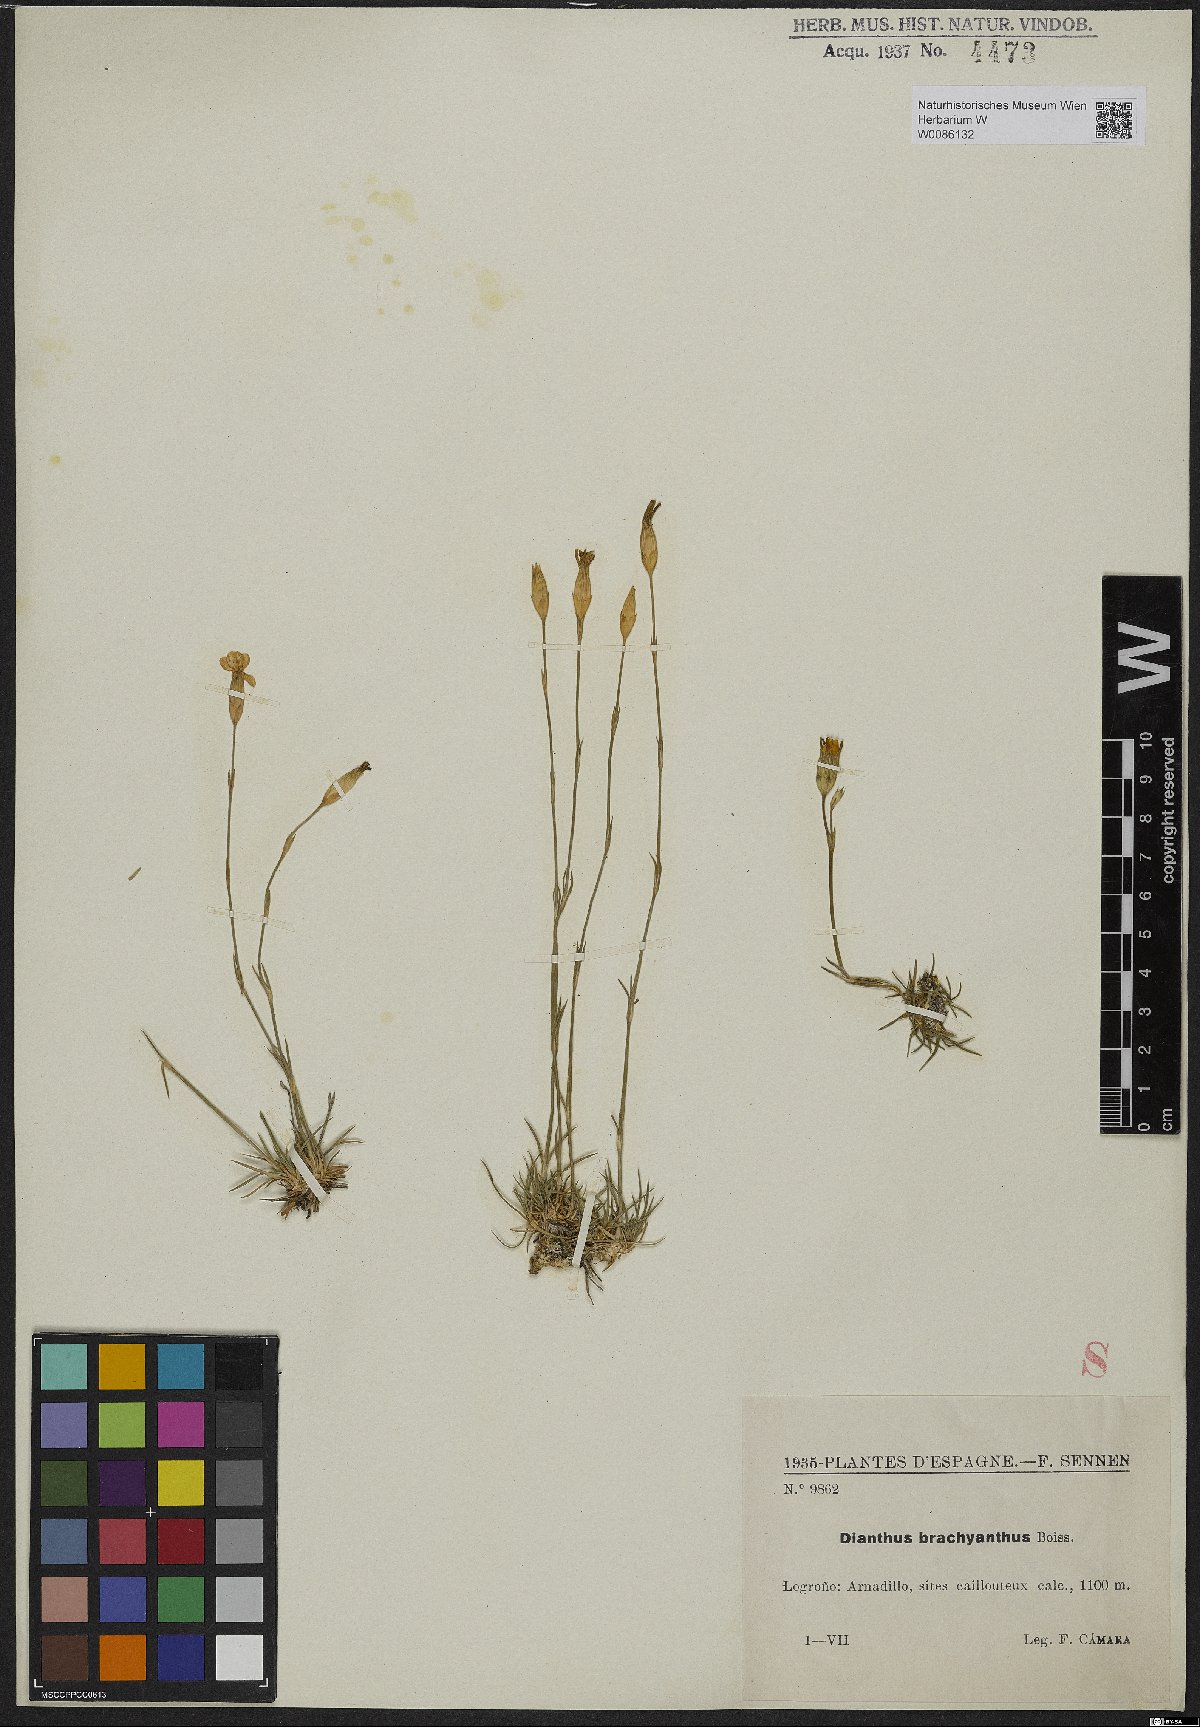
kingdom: Plantae
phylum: Tracheophyta
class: Magnoliopsida
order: Caryophyllales
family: Caryophyllaceae
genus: Dianthus
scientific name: Dianthus pungens
